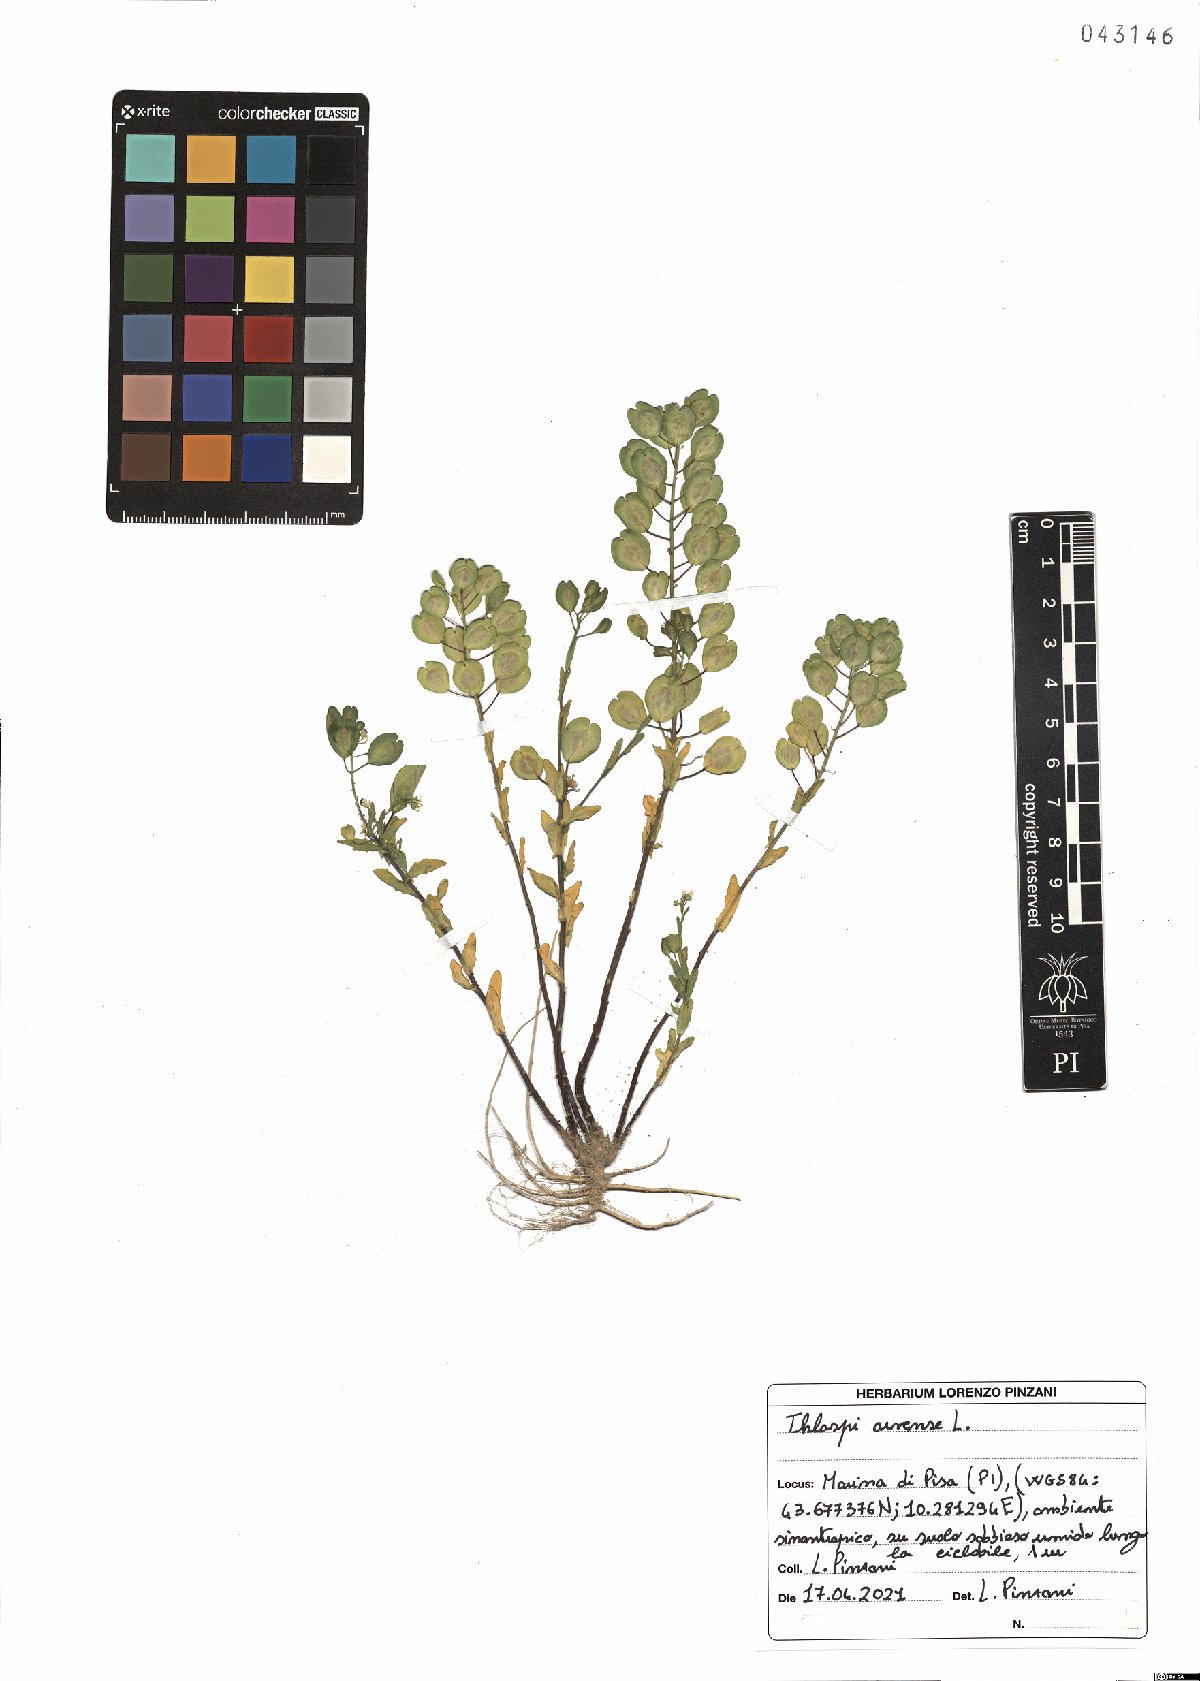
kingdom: Plantae
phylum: Tracheophyta
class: Magnoliopsida
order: Brassicales
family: Brassicaceae
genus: Thlaspi
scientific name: Thlaspi arvense
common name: Field pennycress
